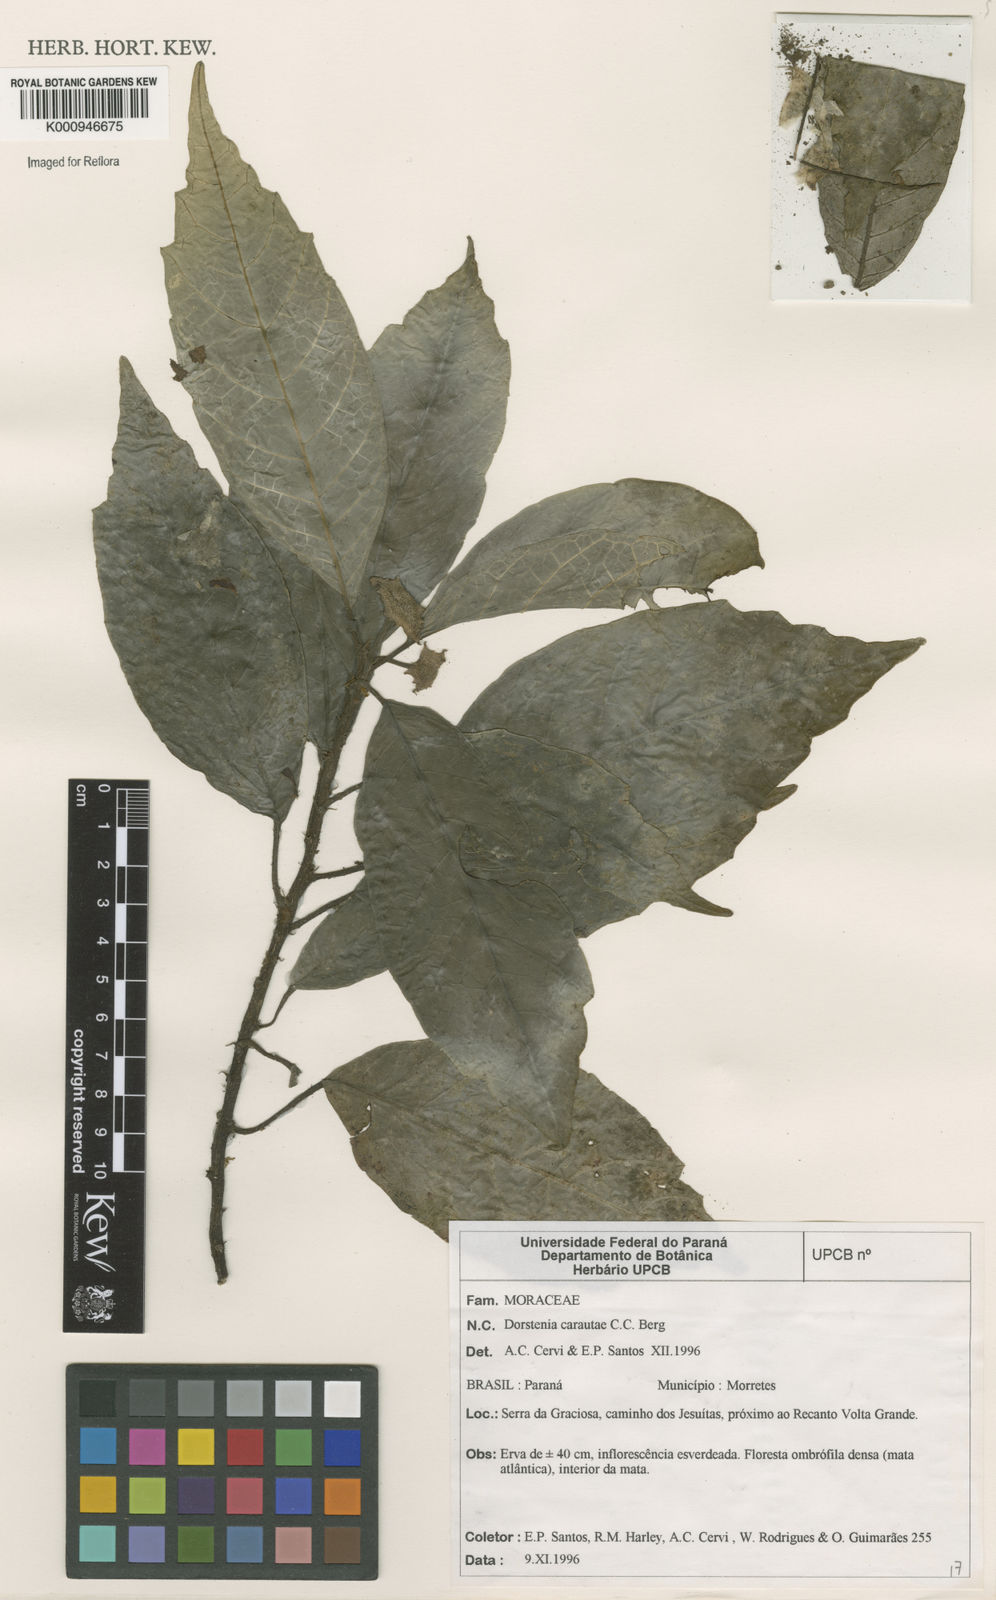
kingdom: Plantae
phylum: Tracheophyta
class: Magnoliopsida
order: Rosales
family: Moraceae
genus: Dorstenia
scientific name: Dorstenia carautae
